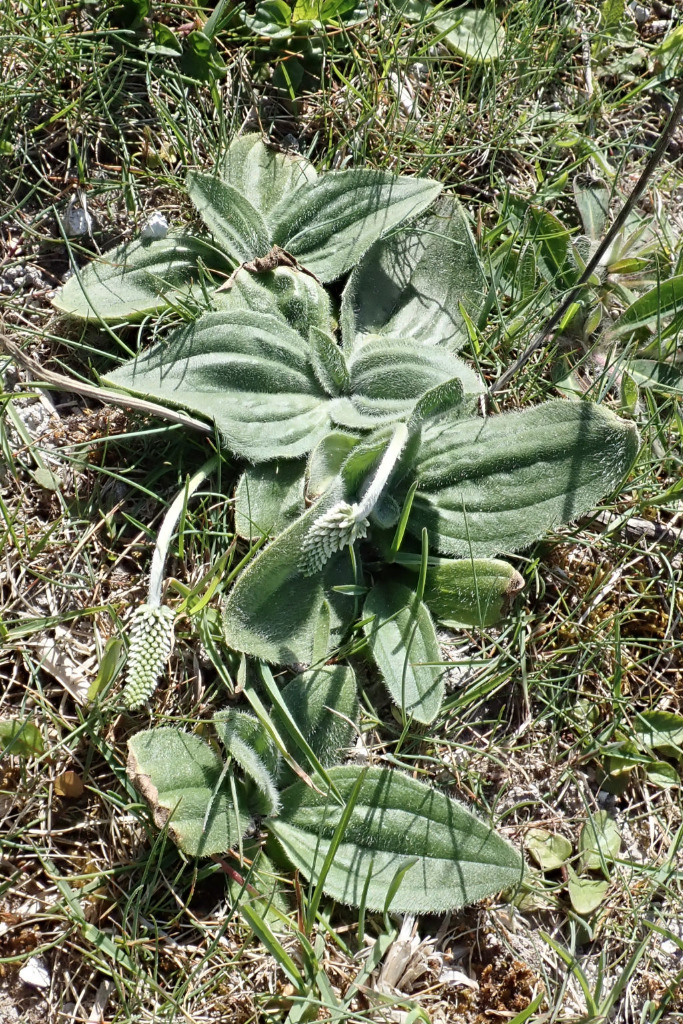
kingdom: Plantae
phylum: Tracheophyta
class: Magnoliopsida
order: Lamiales
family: Plantaginaceae
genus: Plantago
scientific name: Plantago media
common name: Dunet vejbred
